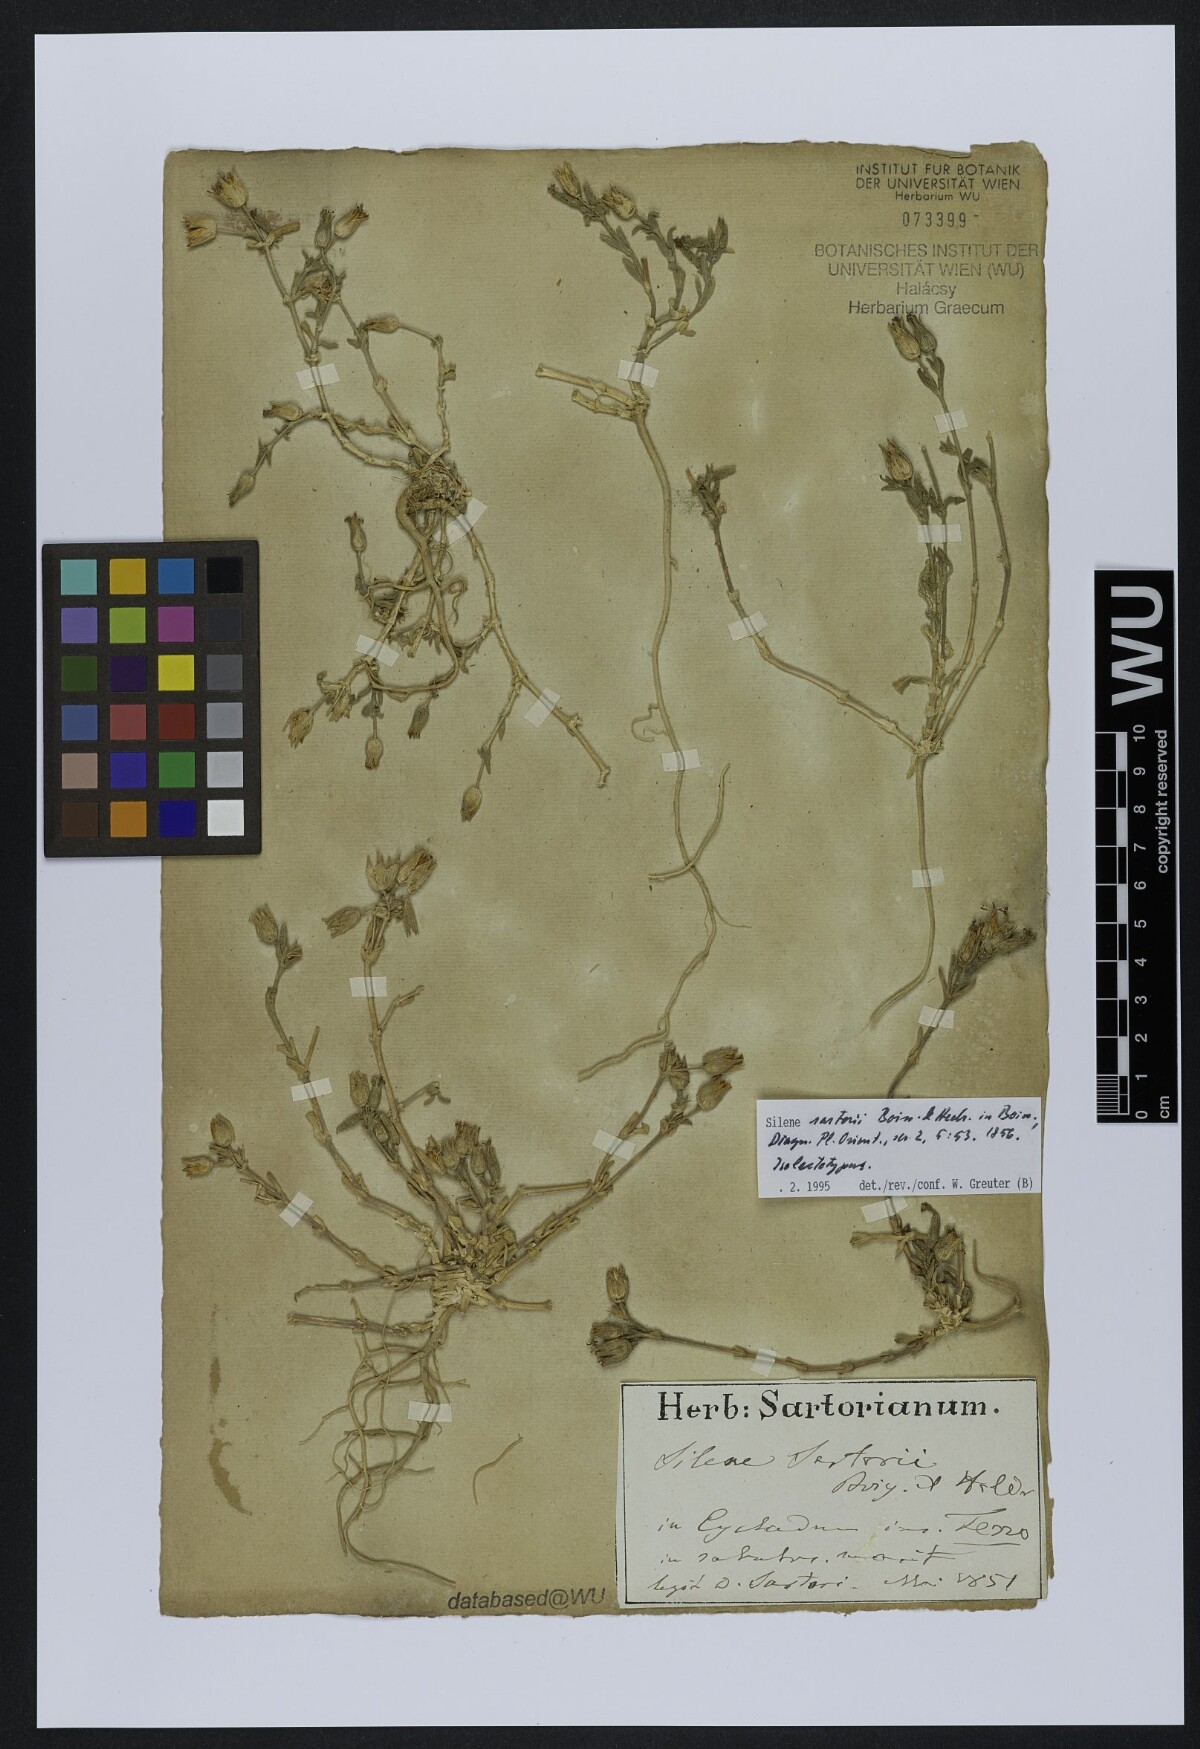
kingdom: Plantae
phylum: Tracheophyta
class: Magnoliopsida
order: Caryophyllales
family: Caryophyllaceae
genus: Silene
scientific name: Silene sartorii
